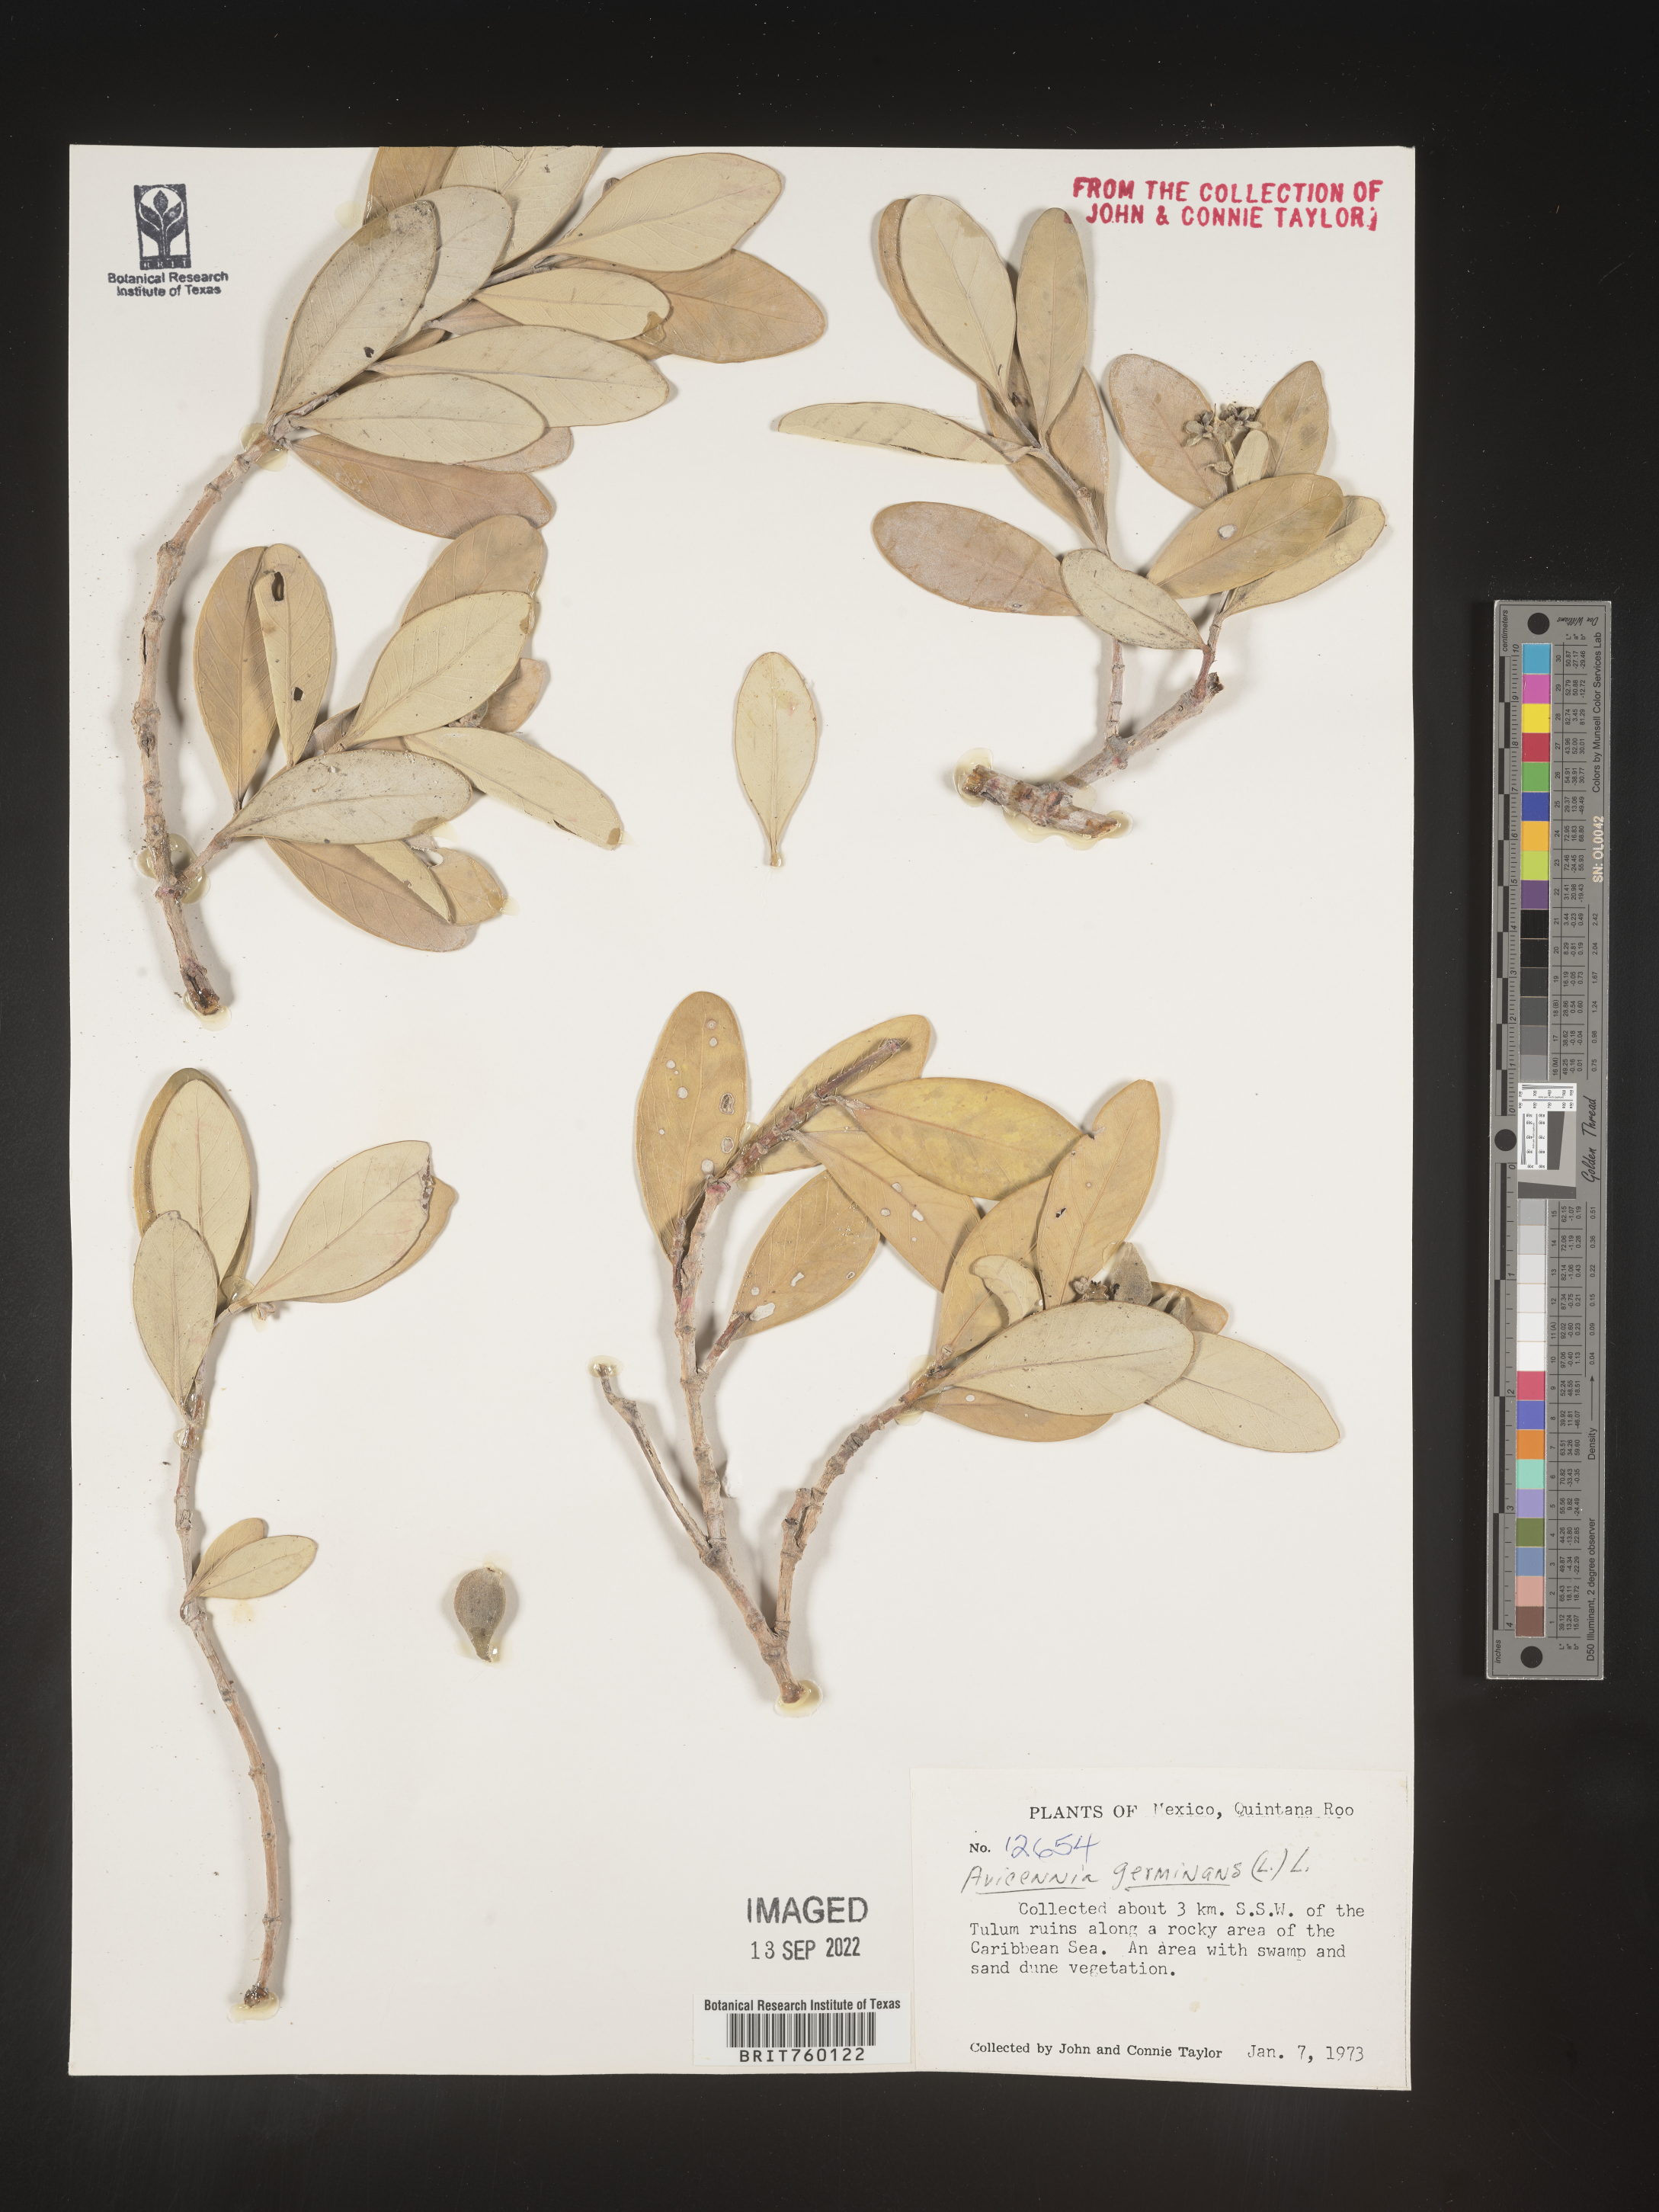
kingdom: Plantae
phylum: Tracheophyta
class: Magnoliopsida
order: Lamiales
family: Acanthaceae
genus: Avicennia
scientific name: Avicennia
